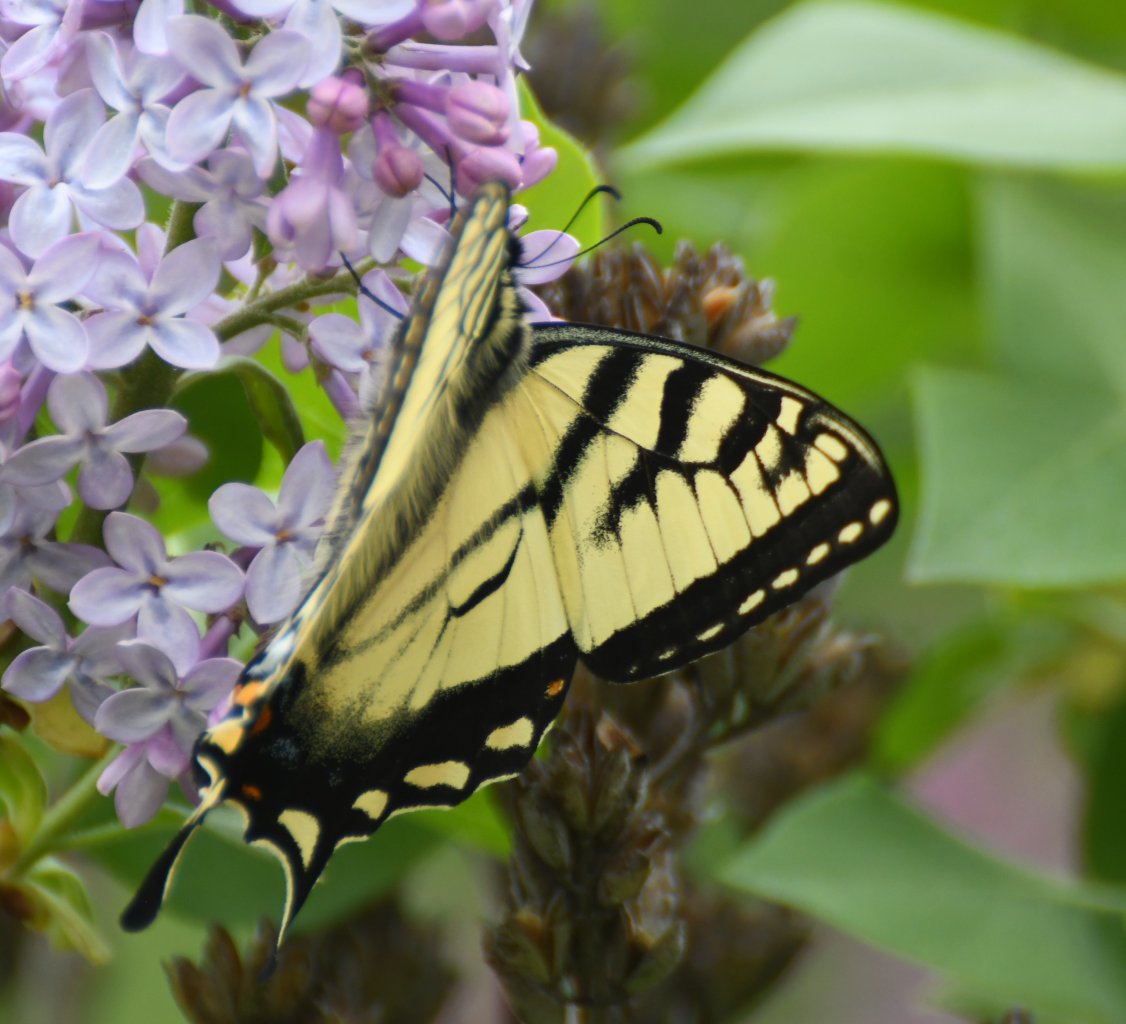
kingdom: Animalia
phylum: Arthropoda
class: Insecta
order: Lepidoptera
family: Papilionidae
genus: Pterourus
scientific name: Pterourus canadensis
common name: Canadian Tiger Swallowtail
